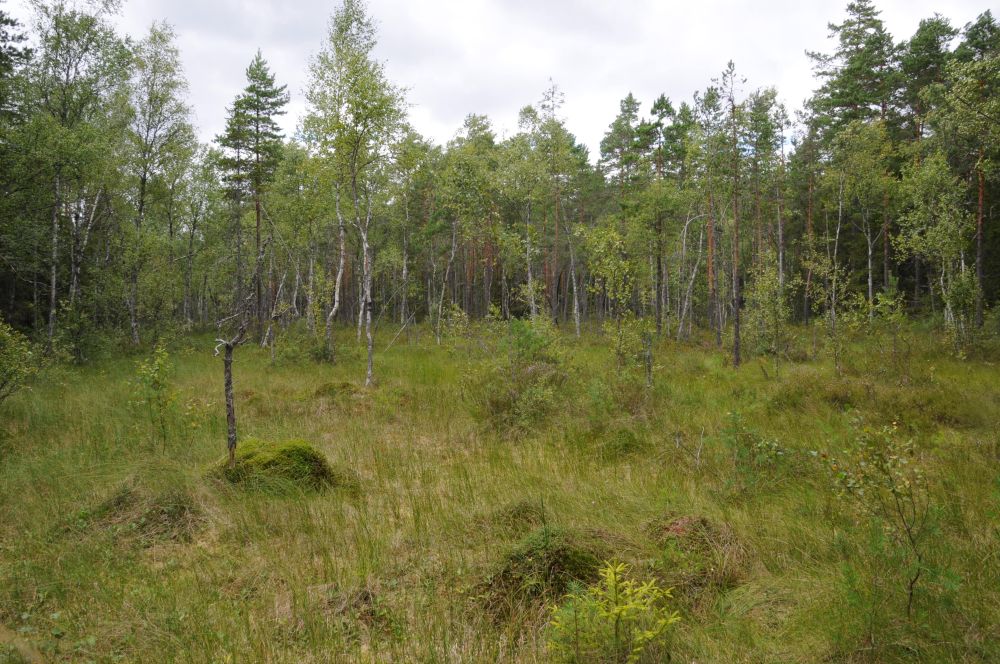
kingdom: Plantae
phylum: Tracheophyta
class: Liliopsida
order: Poales
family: Cyperaceae
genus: Carex
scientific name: Carex limosa
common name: Bog sedge
